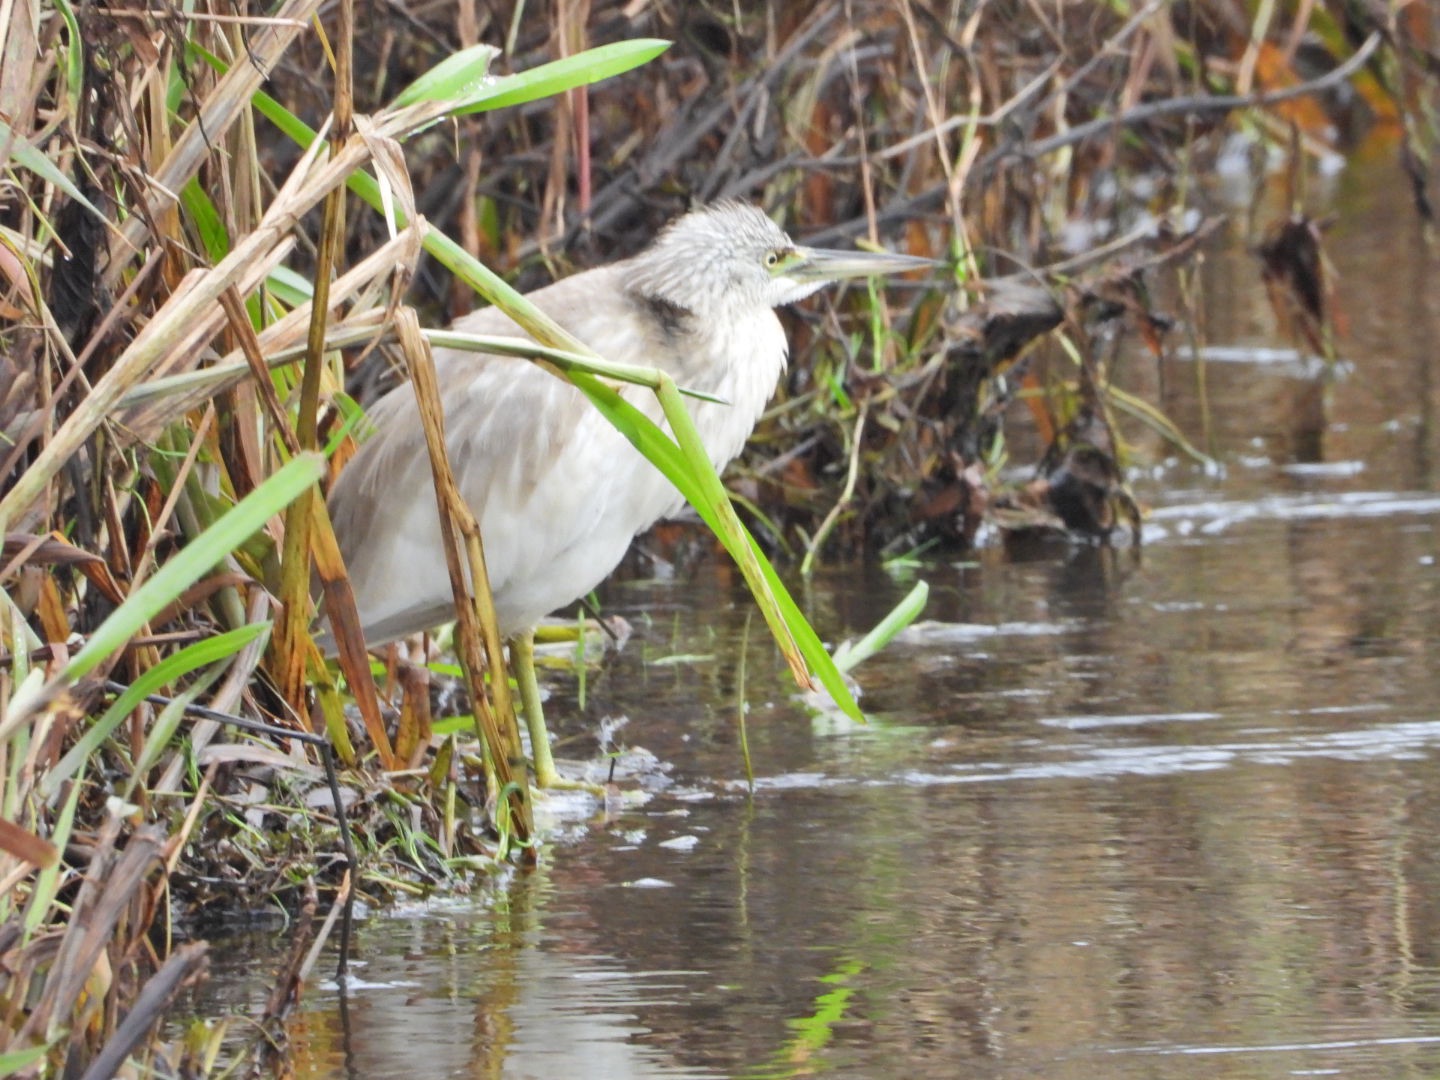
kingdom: Animalia
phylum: Chordata
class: Aves
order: Pelecaniformes
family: Ardeidae
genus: Ardeola
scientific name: Ardeola ralloides
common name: Tophejre
